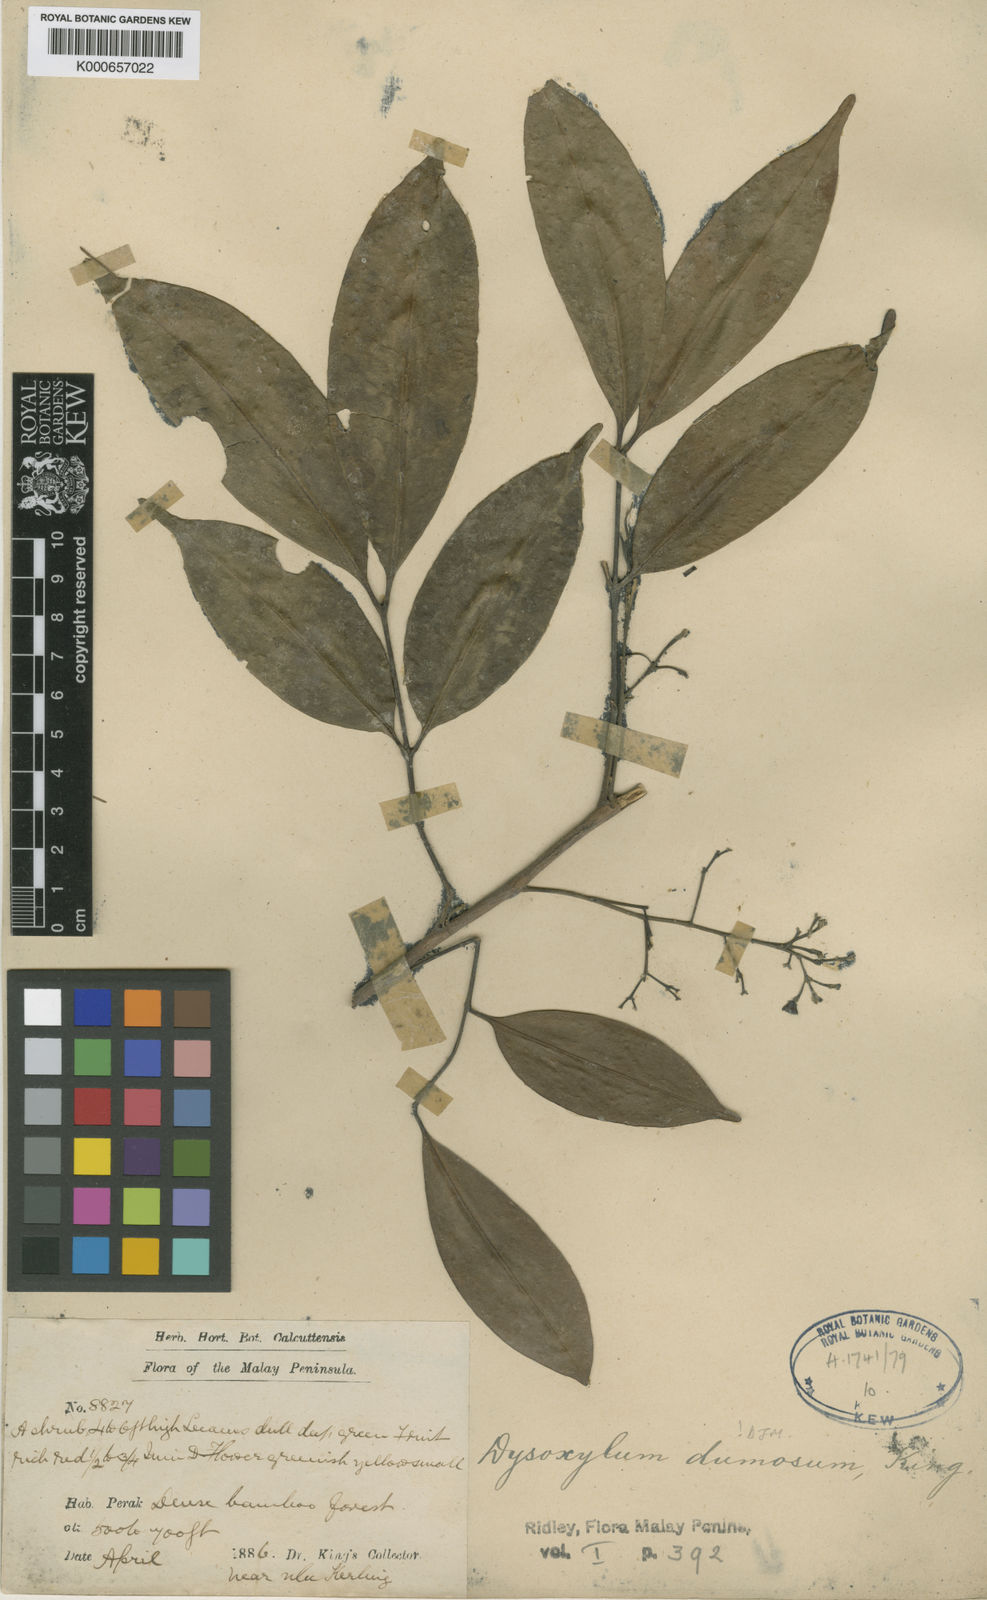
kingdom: Plantae
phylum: Tracheophyta
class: Magnoliopsida
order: Sapindales
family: Meliaceae
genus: Pseudocarapa
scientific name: Pseudocarapa dumosa
